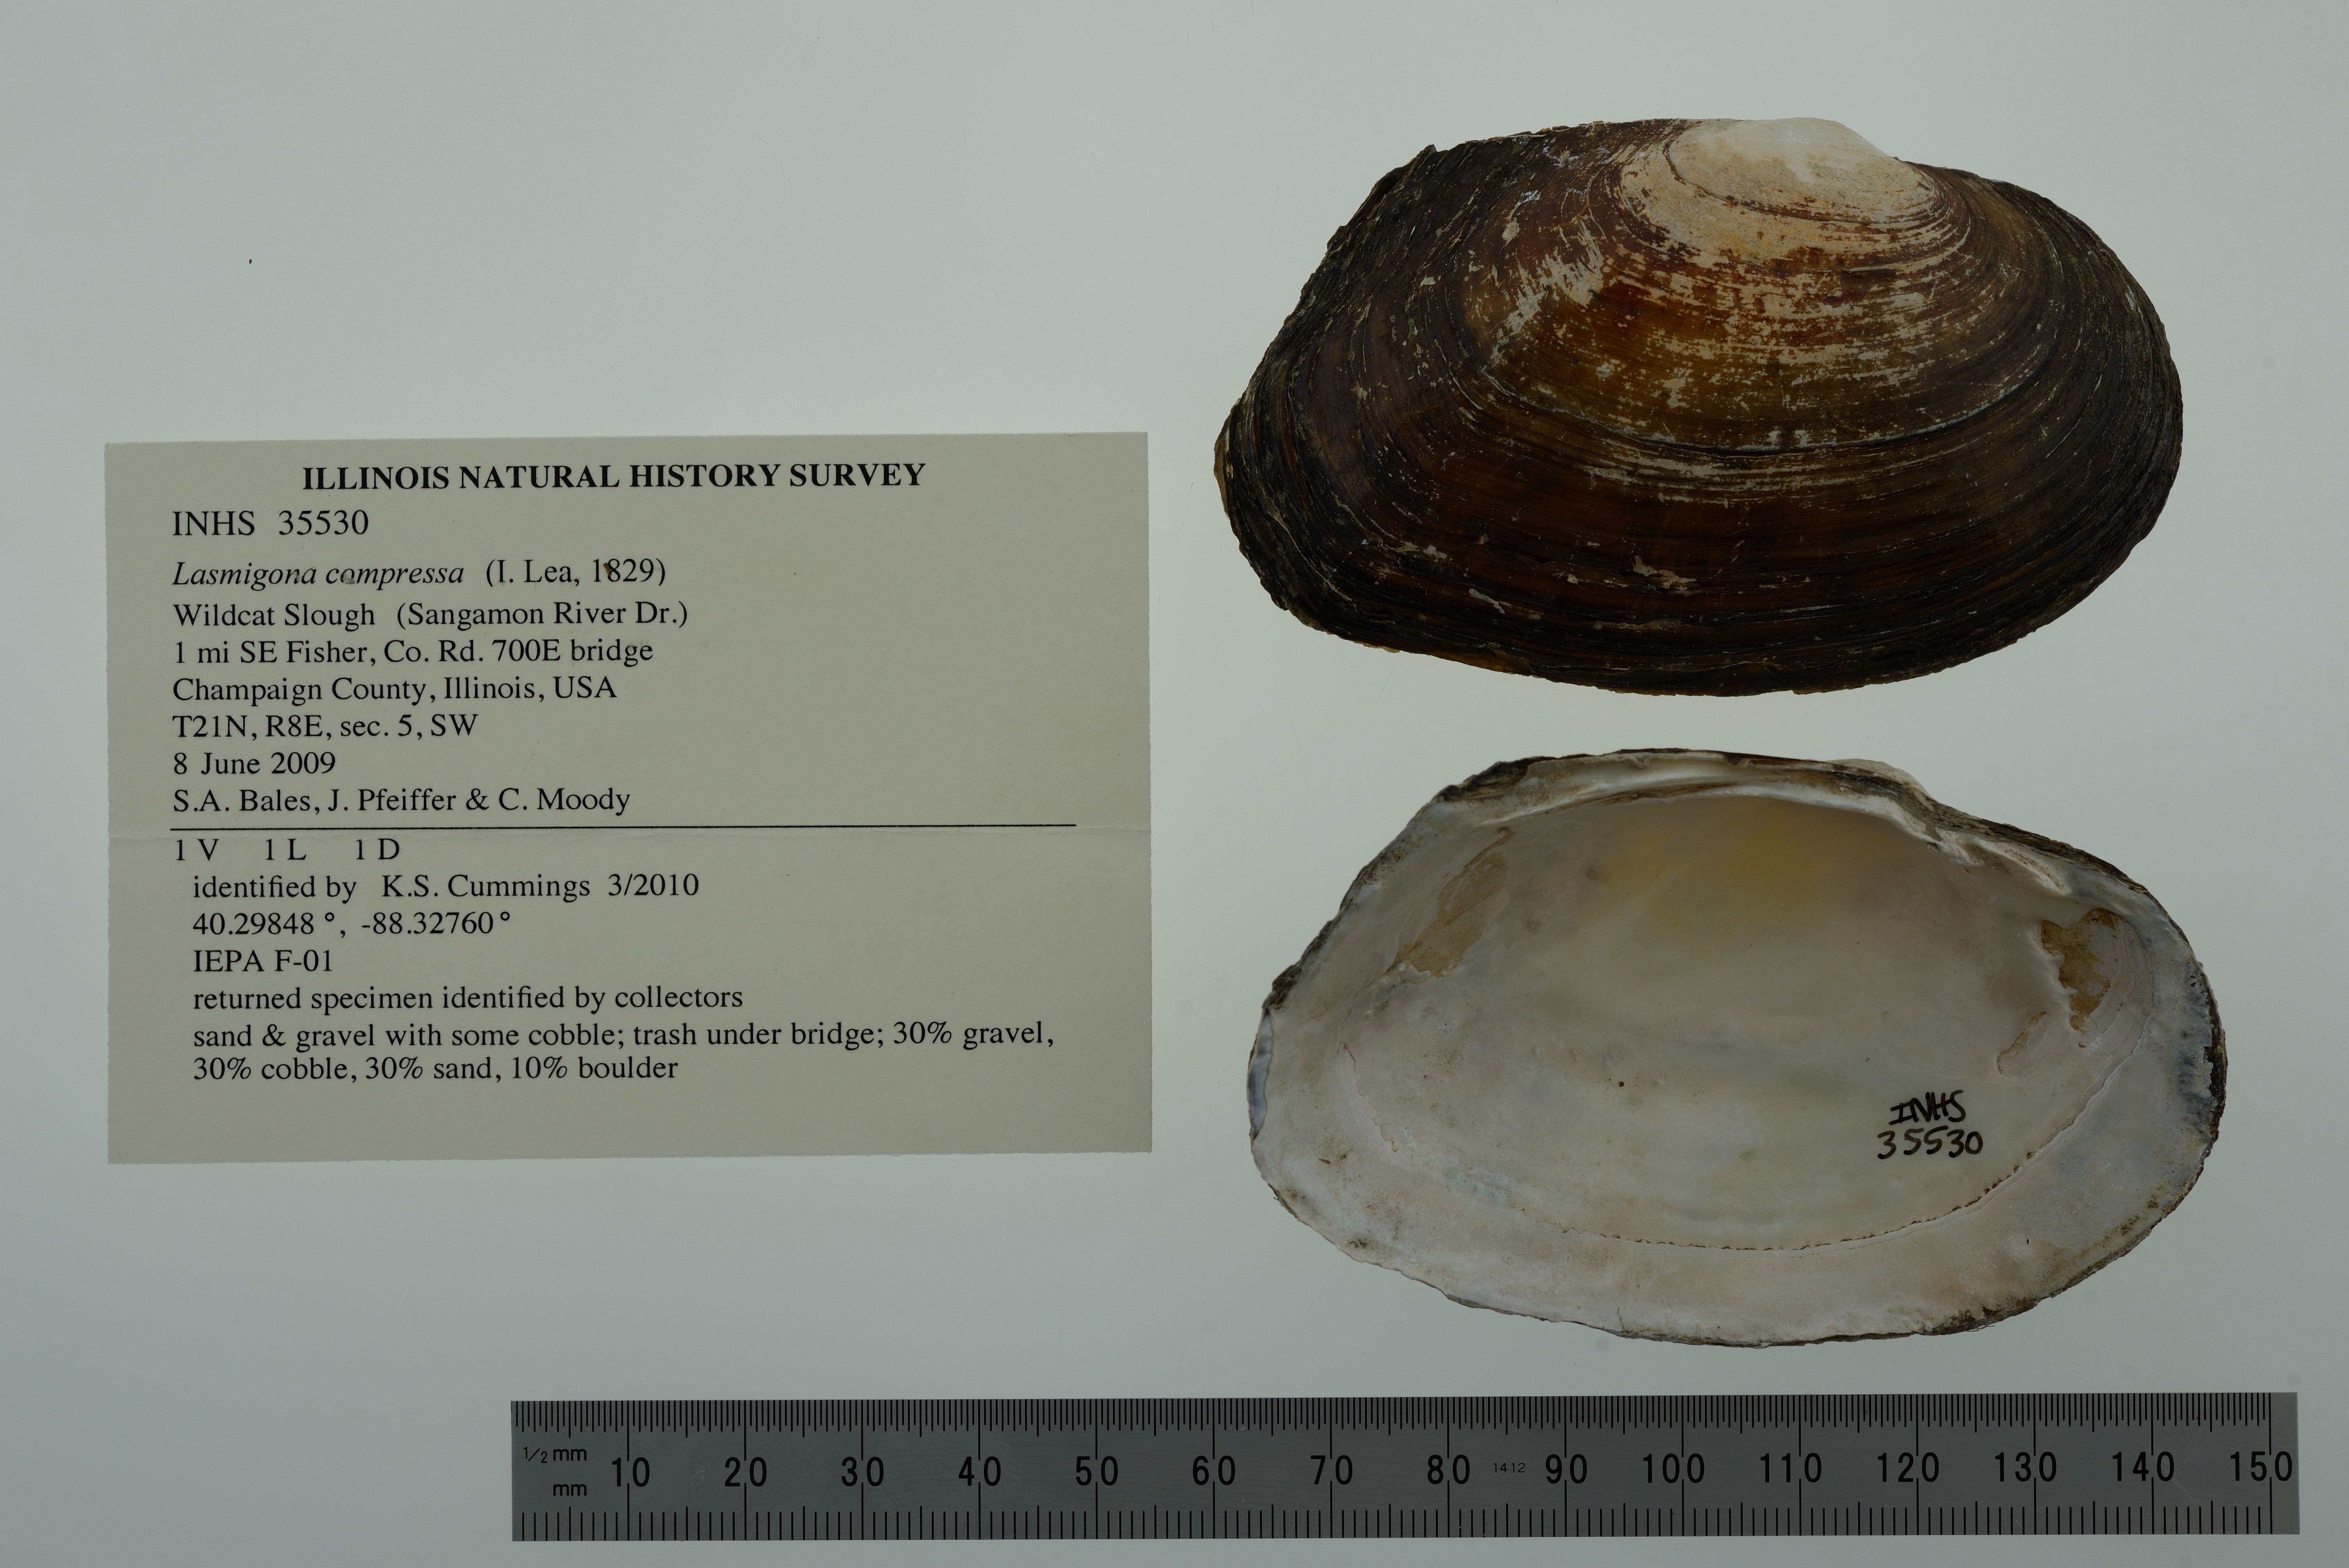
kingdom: Animalia
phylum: Mollusca
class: Bivalvia
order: Unionida
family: Unionidae
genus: Lasmigona
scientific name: Lasmigona compressa
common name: Creek heelsplitter
